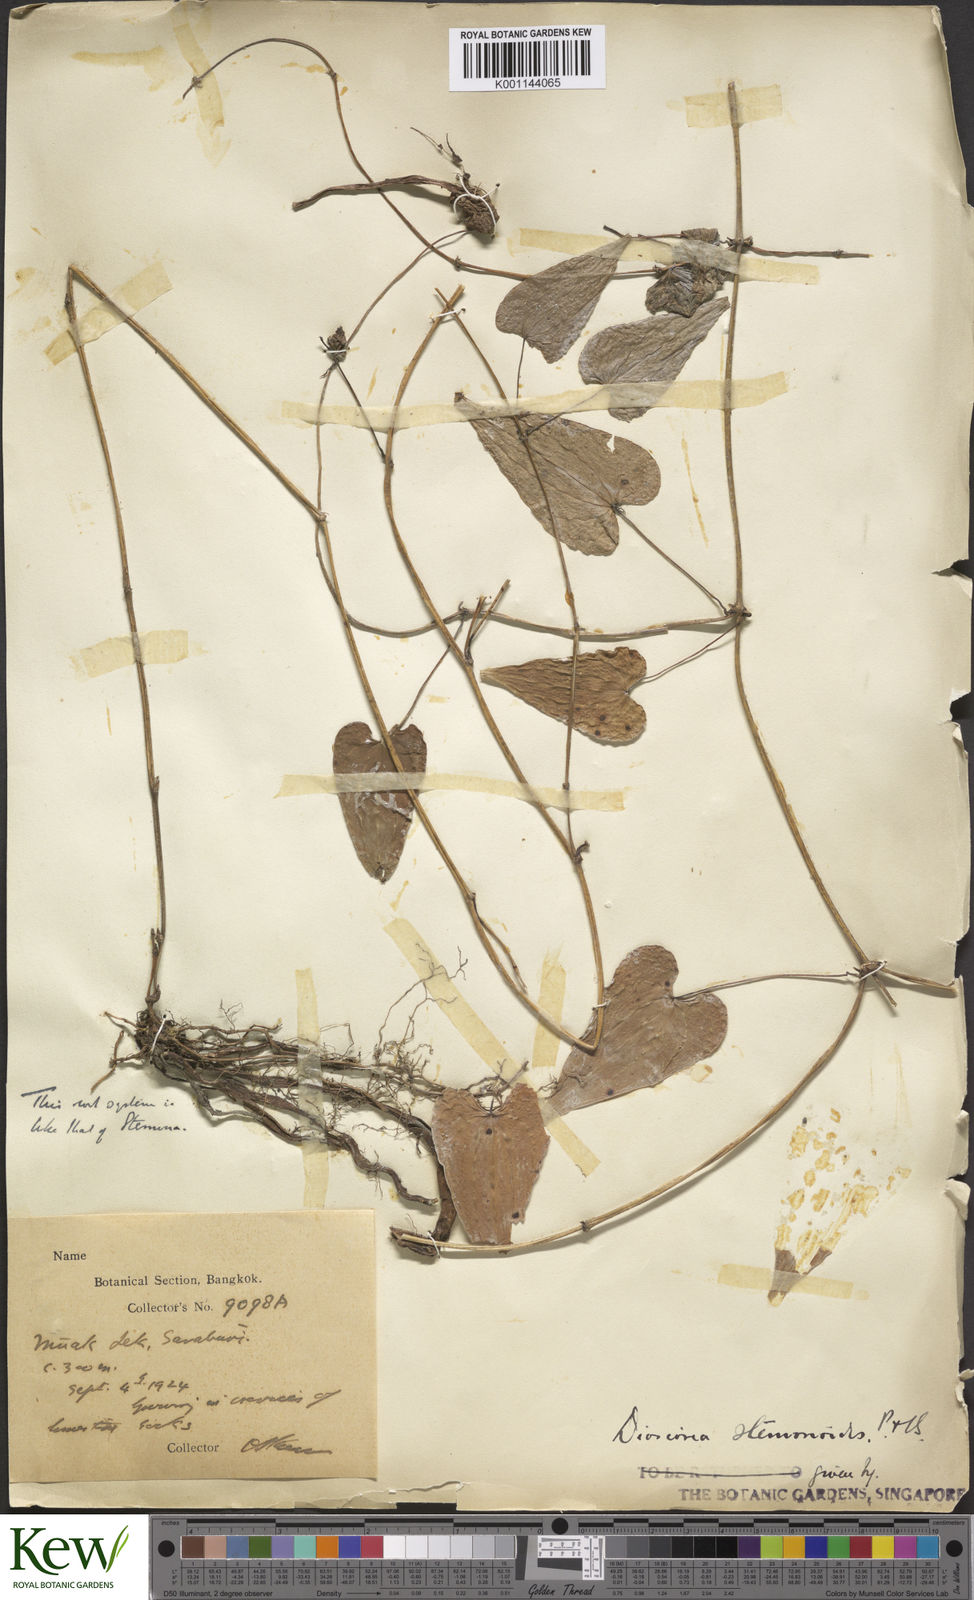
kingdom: Plantae
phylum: Tracheophyta
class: Liliopsida
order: Dioscoreales
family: Dioscoreaceae
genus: Dioscorea
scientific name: Dioscorea stemonoides
